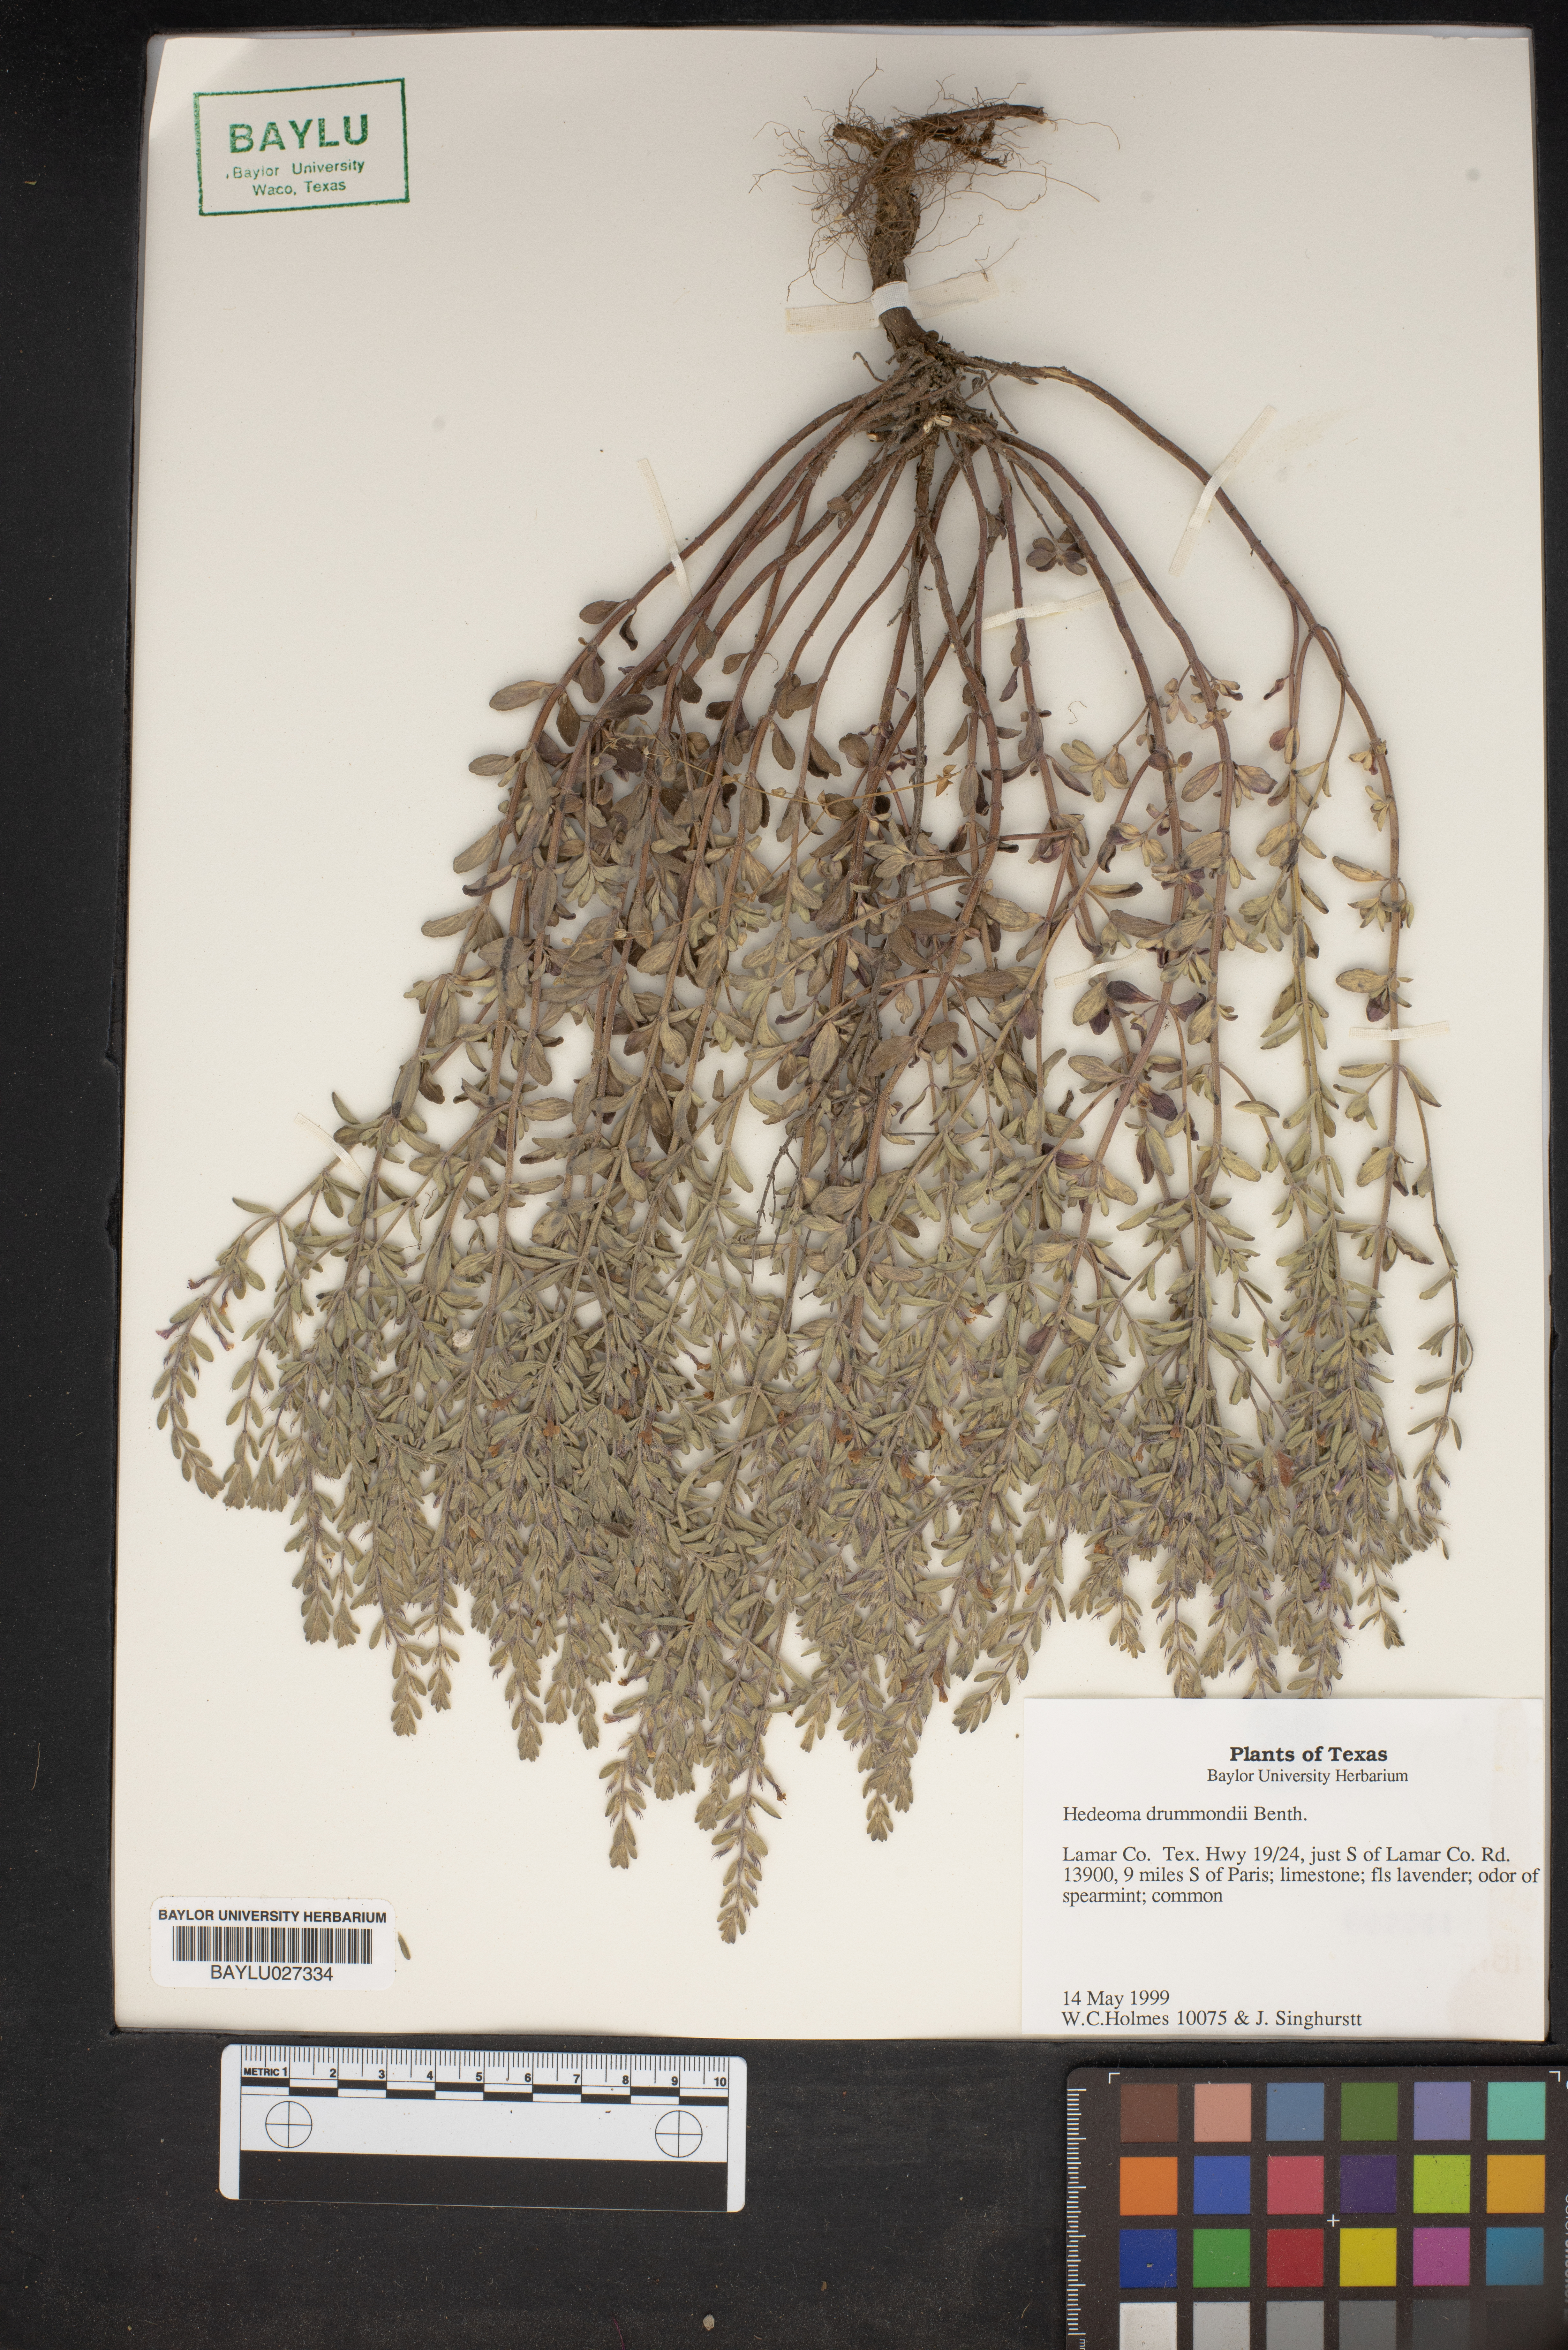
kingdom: Plantae
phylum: Tracheophyta
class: Magnoliopsida
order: Lamiales
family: Lamiaceae
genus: Hedeoma
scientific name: Hedeoma drummondii
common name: New mexico pennyroyal
